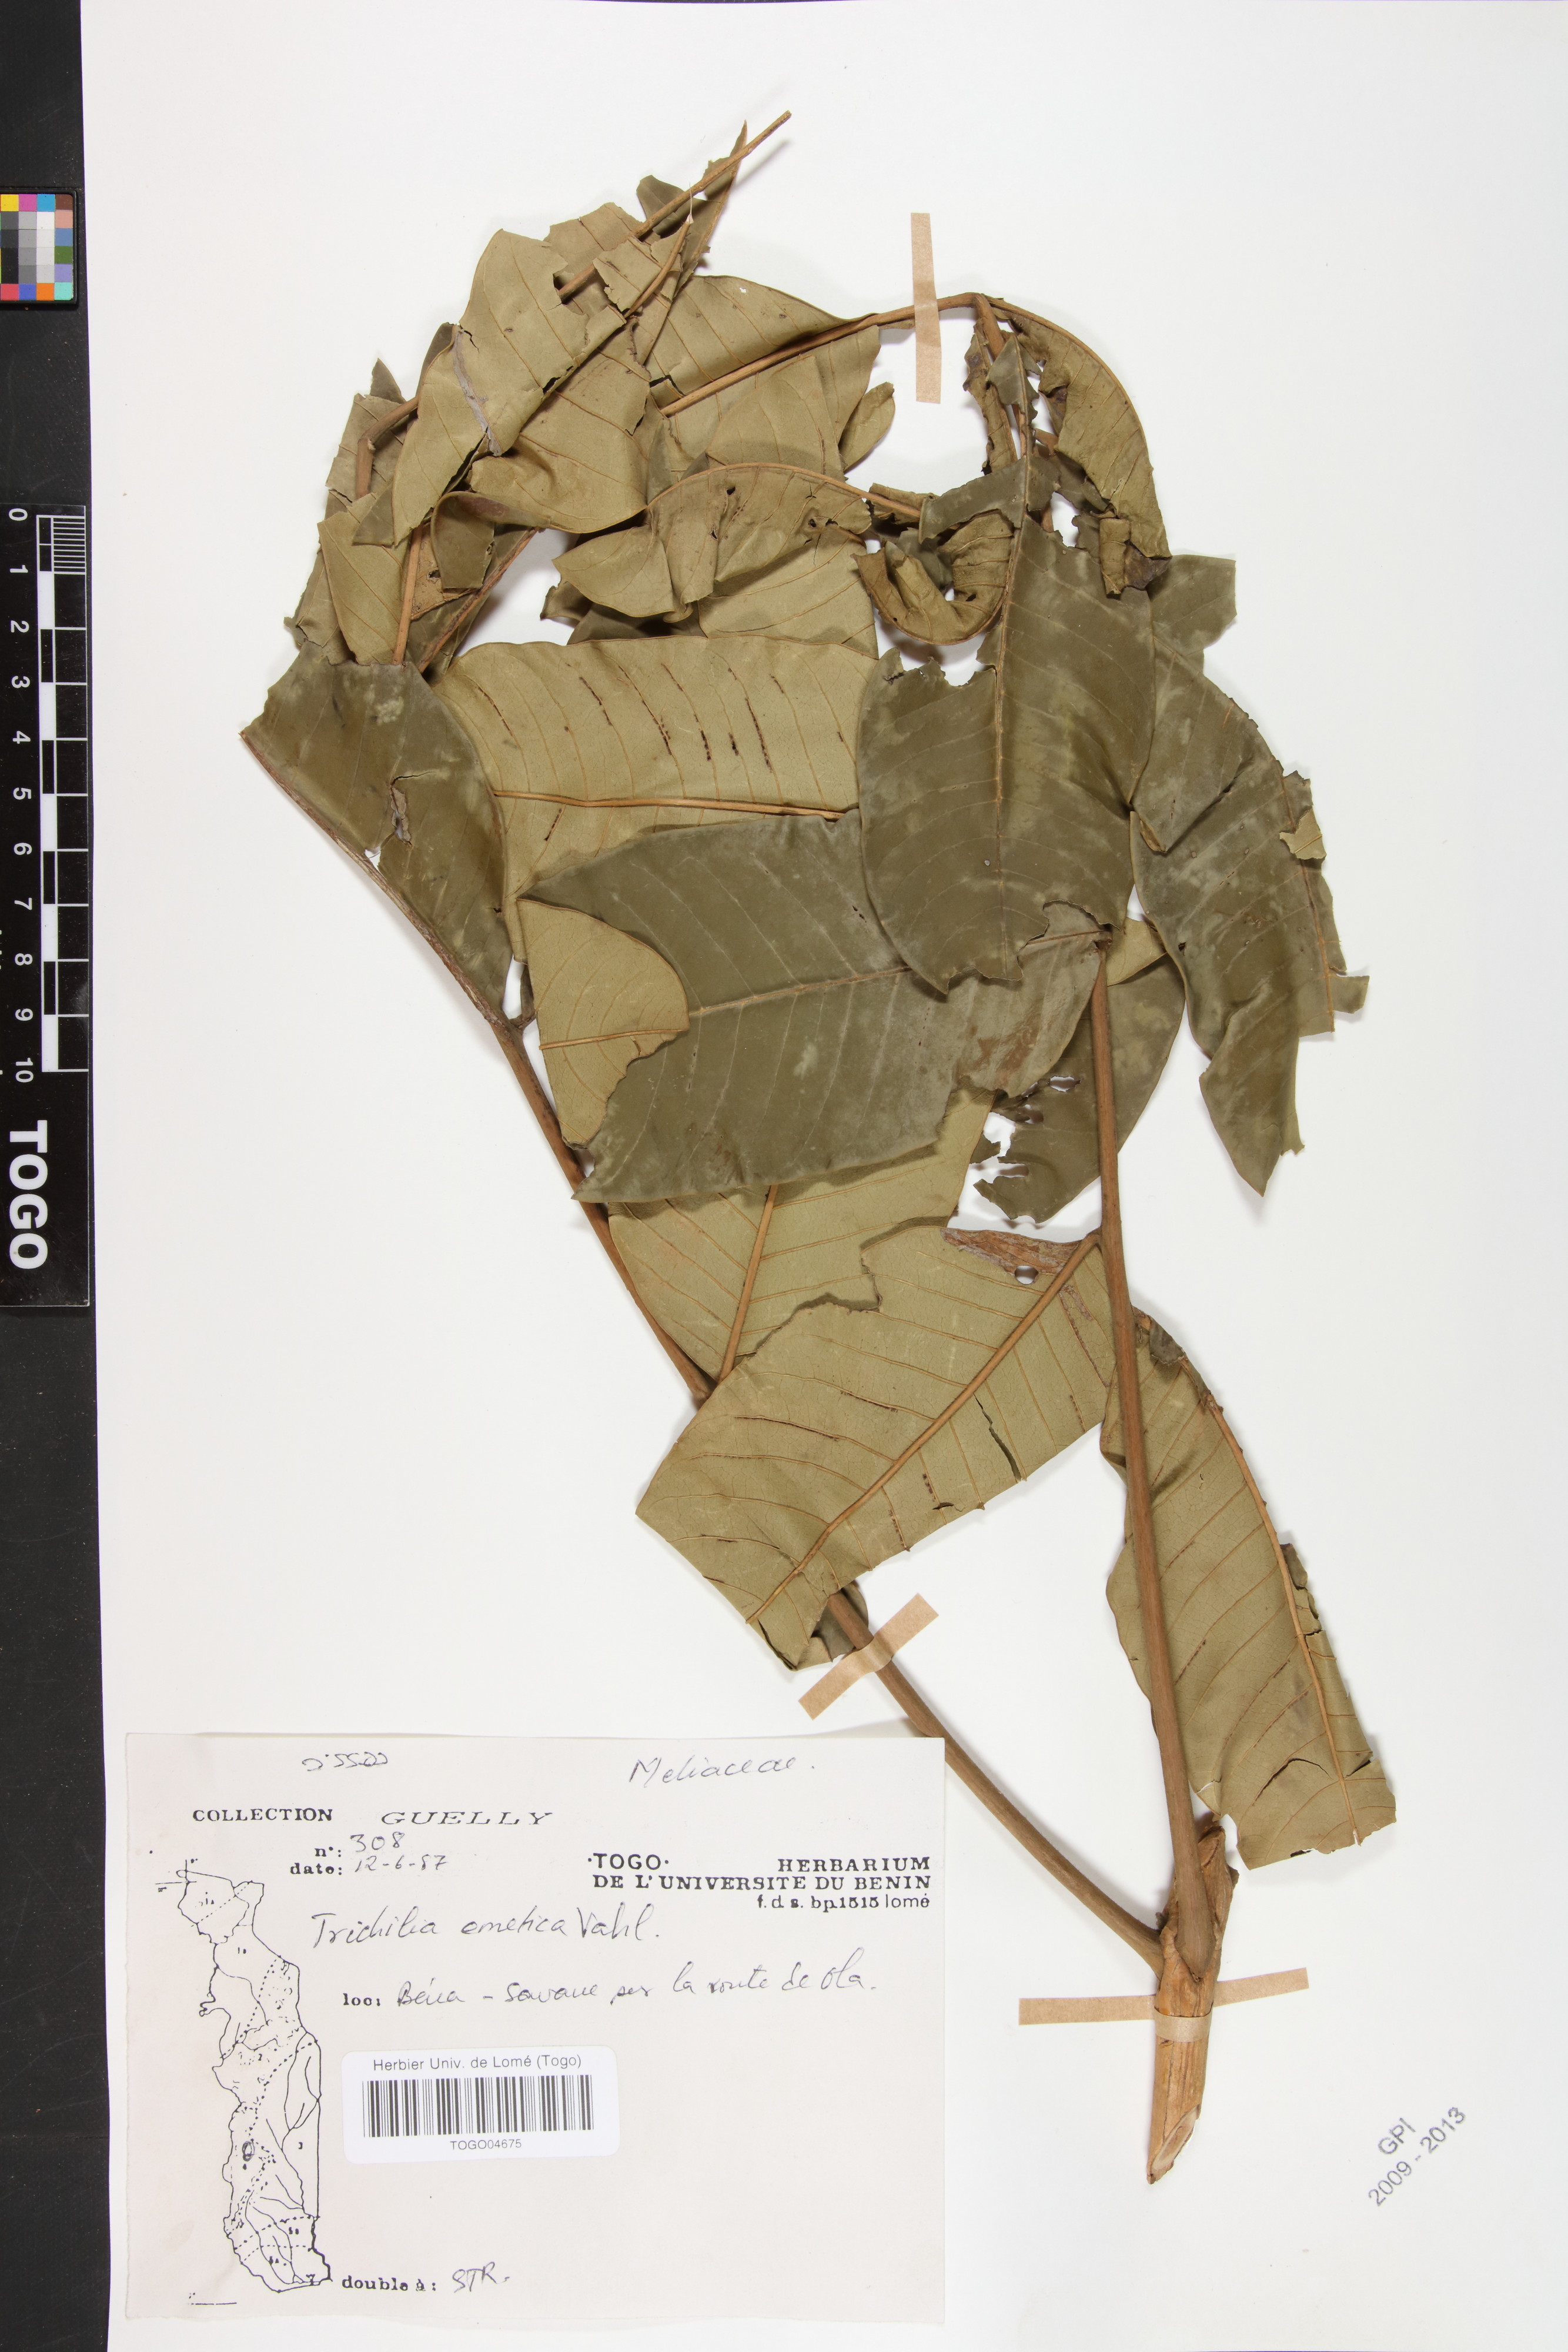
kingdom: Plantae
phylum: Tracheophyta
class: Magnoliopsida
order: Sapindales
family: Meliaceae
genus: Trichilia
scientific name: Trichilia emetica
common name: Christmas-bells
